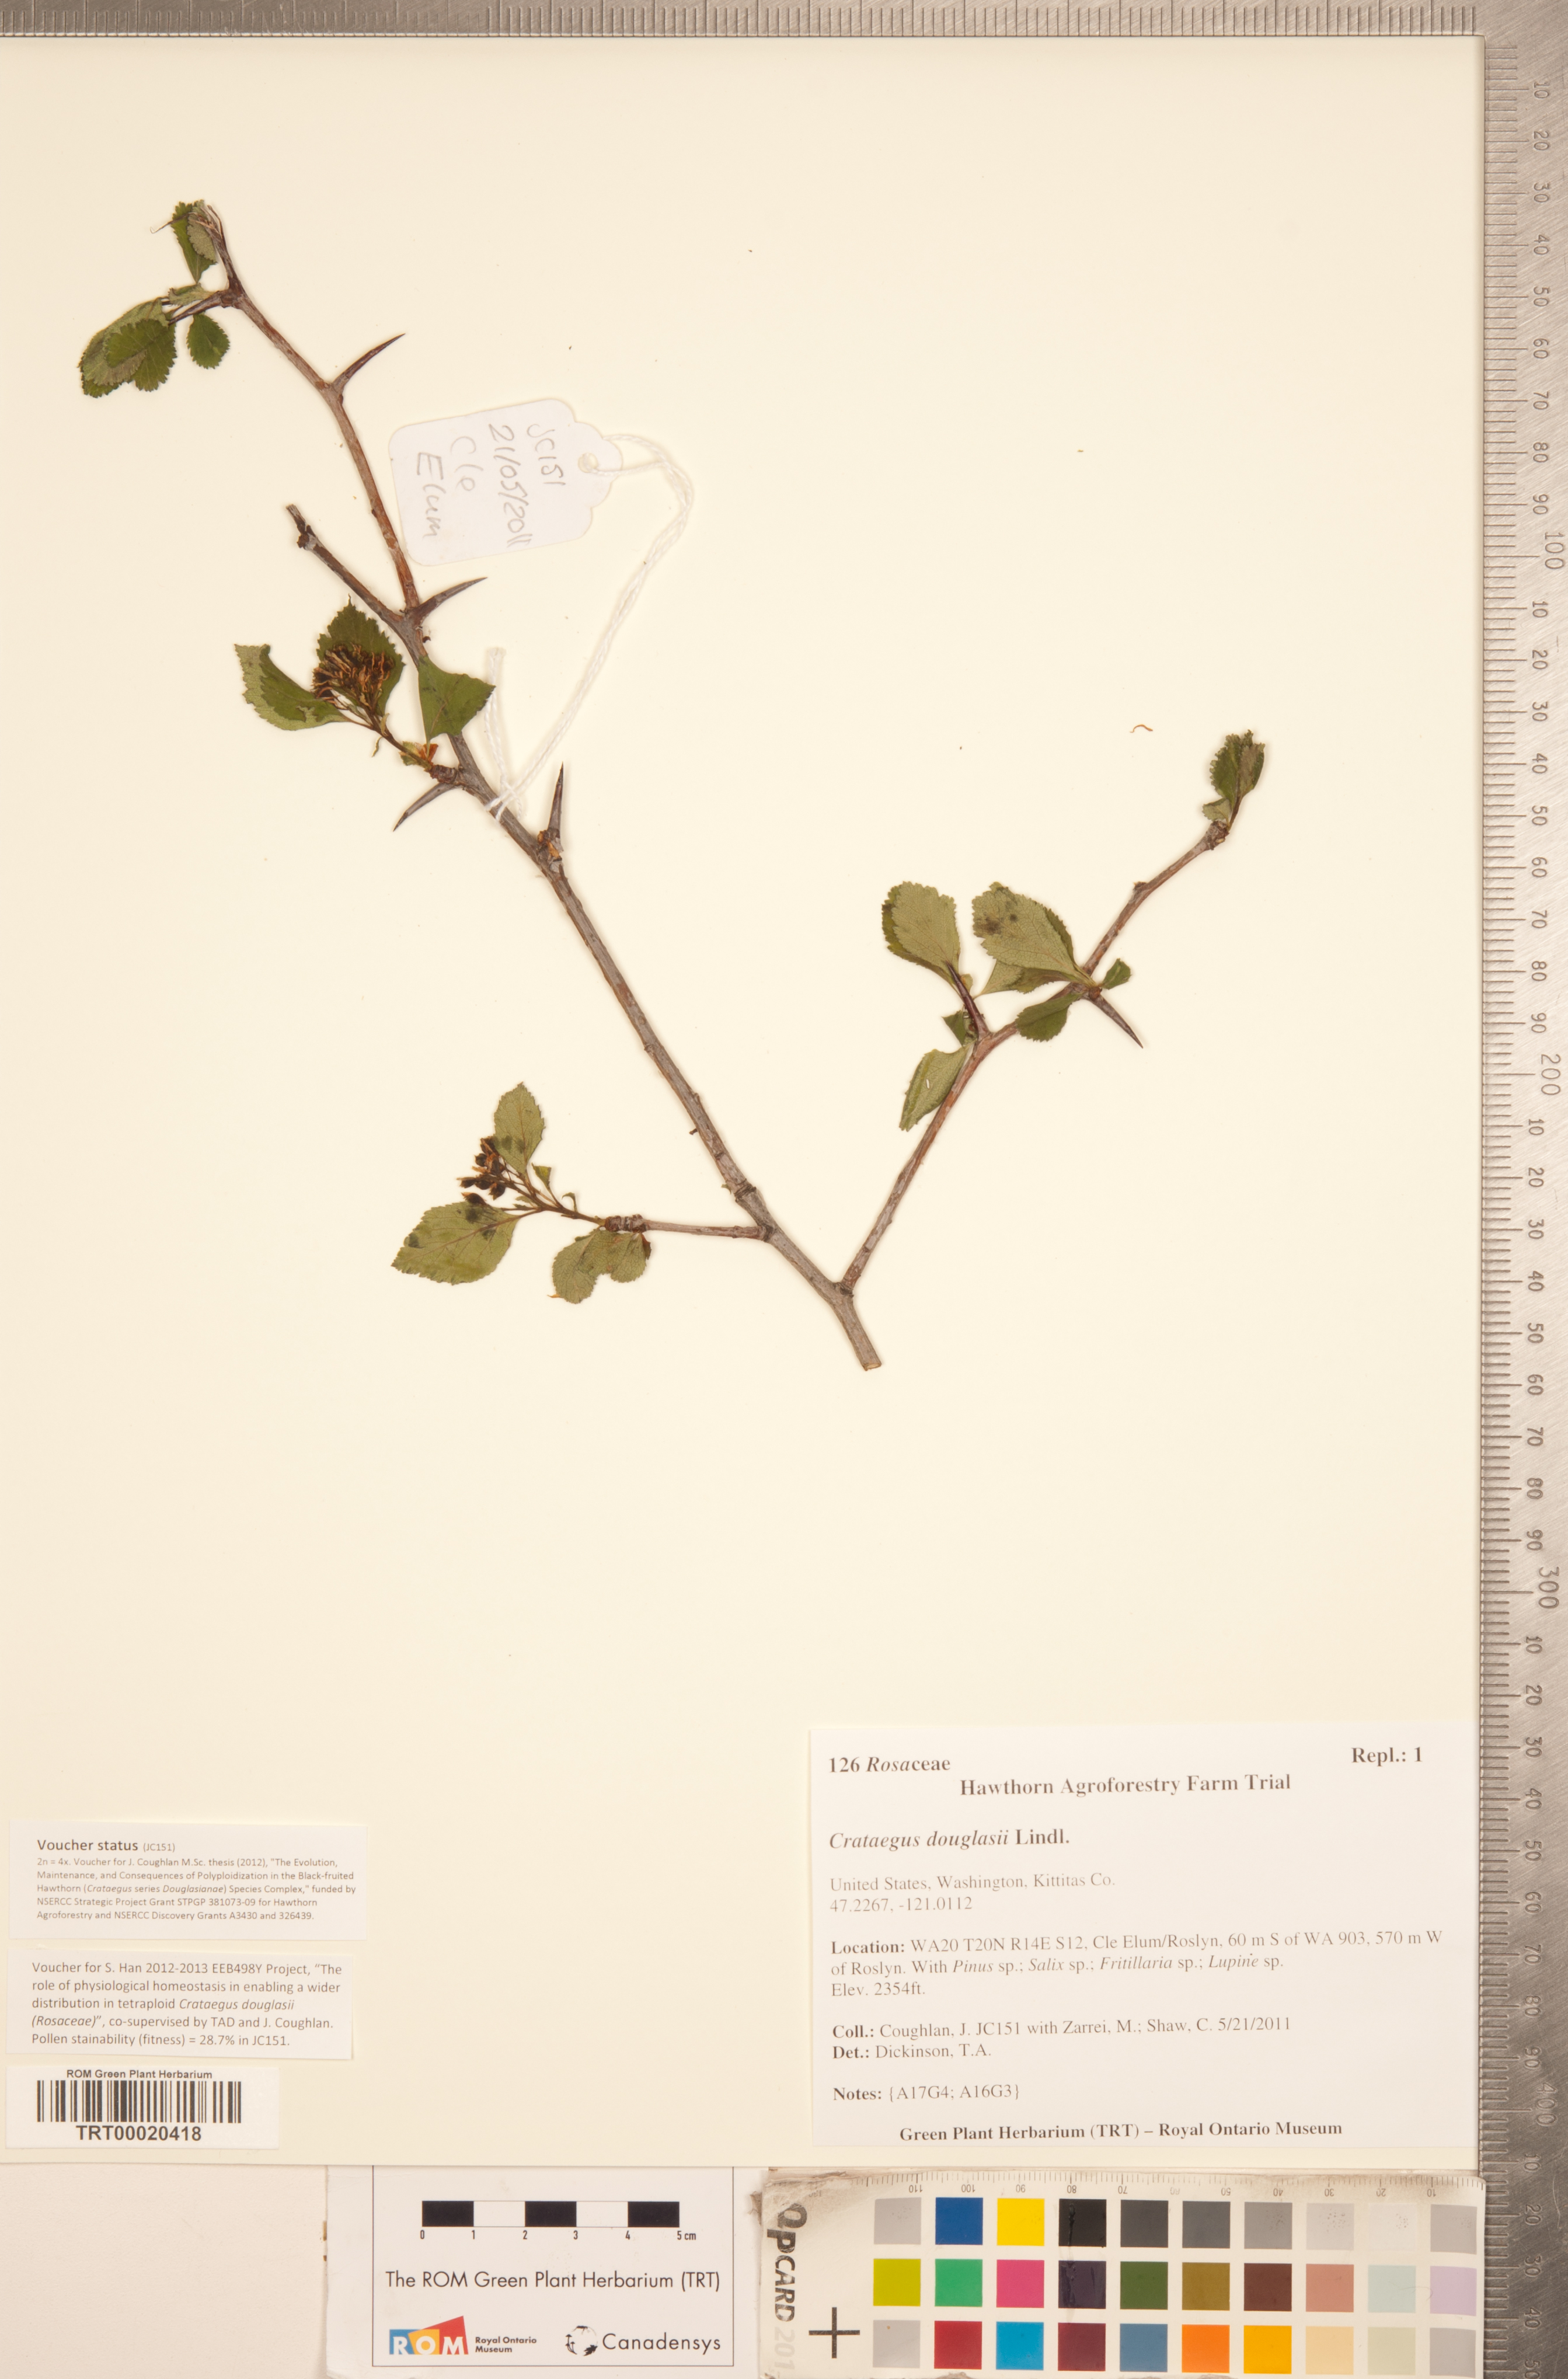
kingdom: Plantae
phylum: Tracheophyta
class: Magnoliopsida
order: Rosales
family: Rosaceae
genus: Crataegus
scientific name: Crataegus douglasii
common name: Black hawthorn
